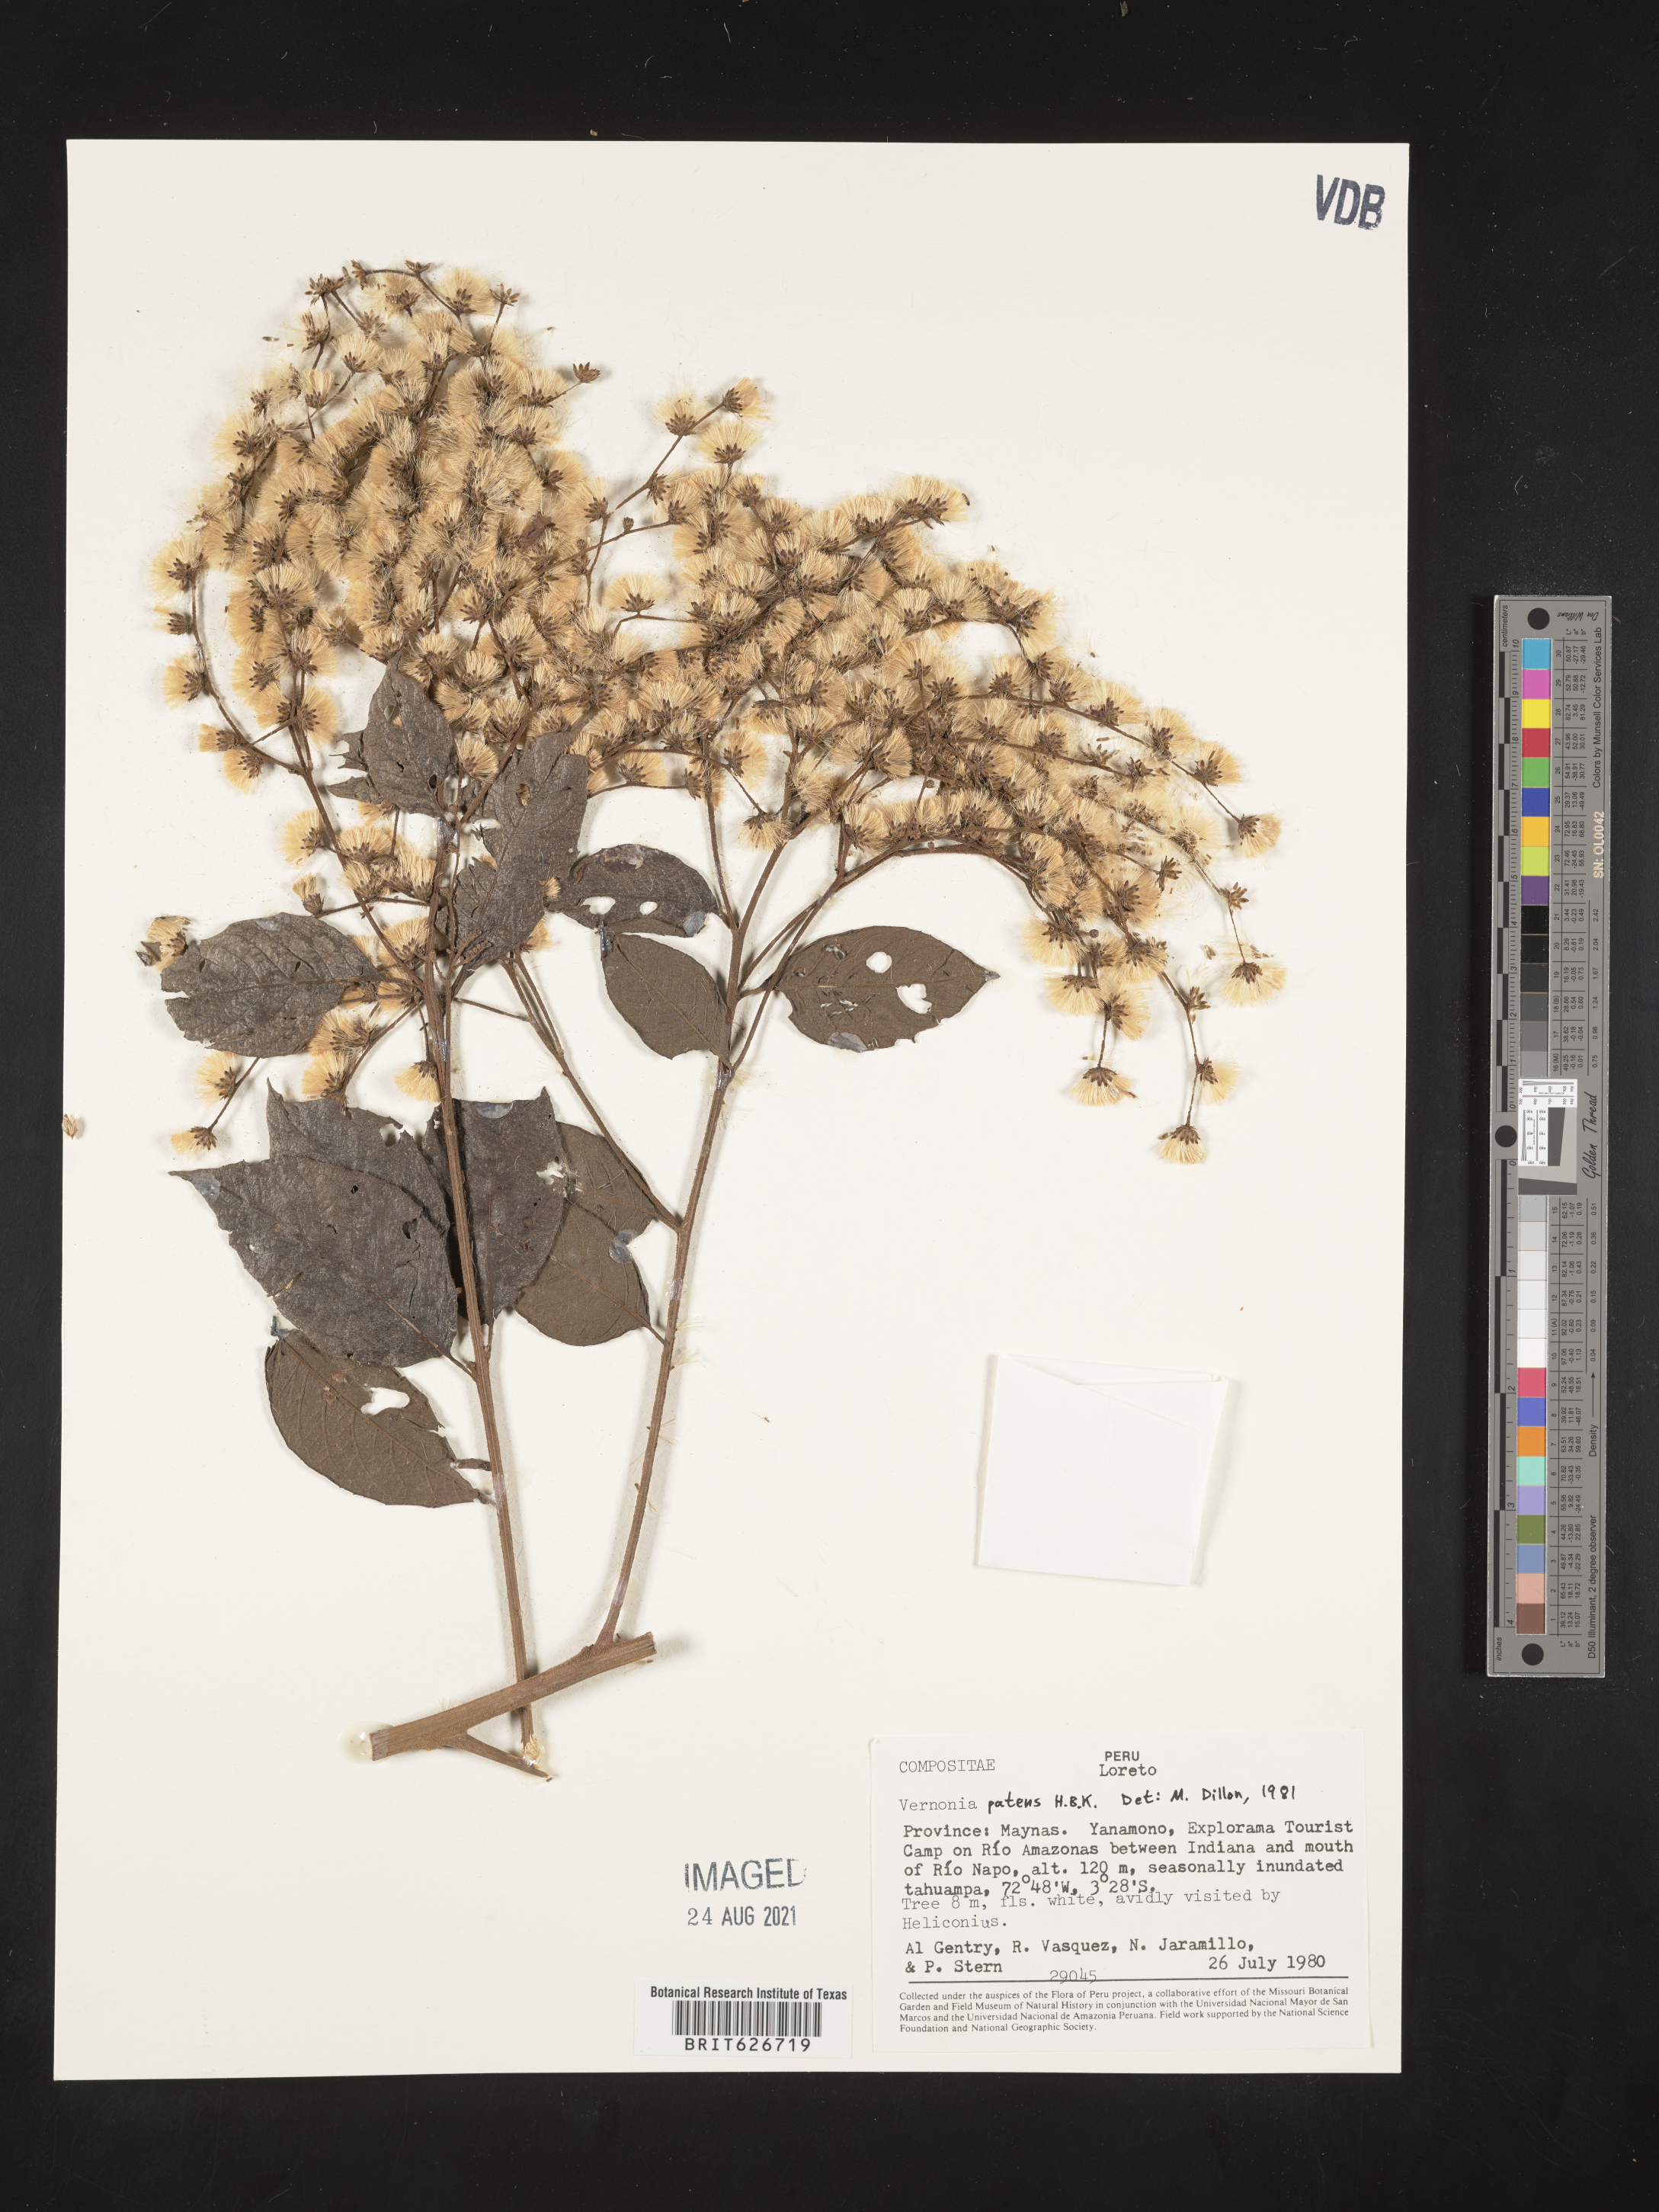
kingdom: Plantae
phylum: Tracheophyta
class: Magnoliopsida
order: Asterales
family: Asteraceae
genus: Vernonanthura
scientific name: Vernonanthura patens
